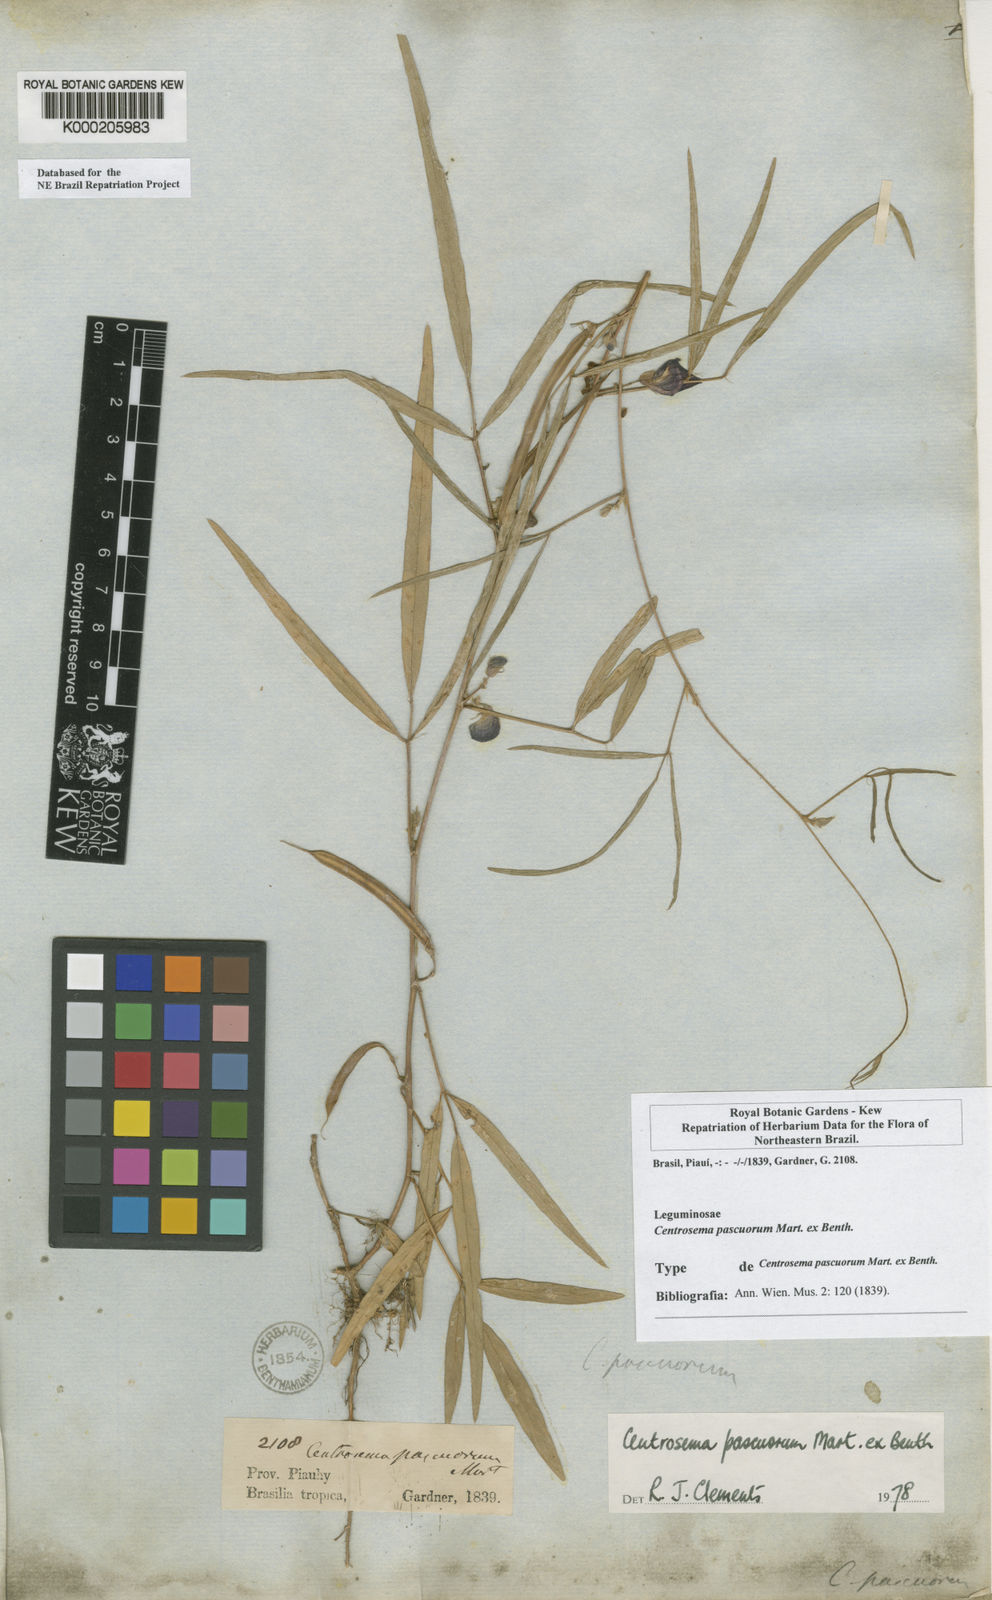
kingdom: Plantae
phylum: Tracheophyta
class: Magnoliopsida
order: Fabales
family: Fabaceae
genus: Centrosema
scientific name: Centrosema pascuorum
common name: Centurion
